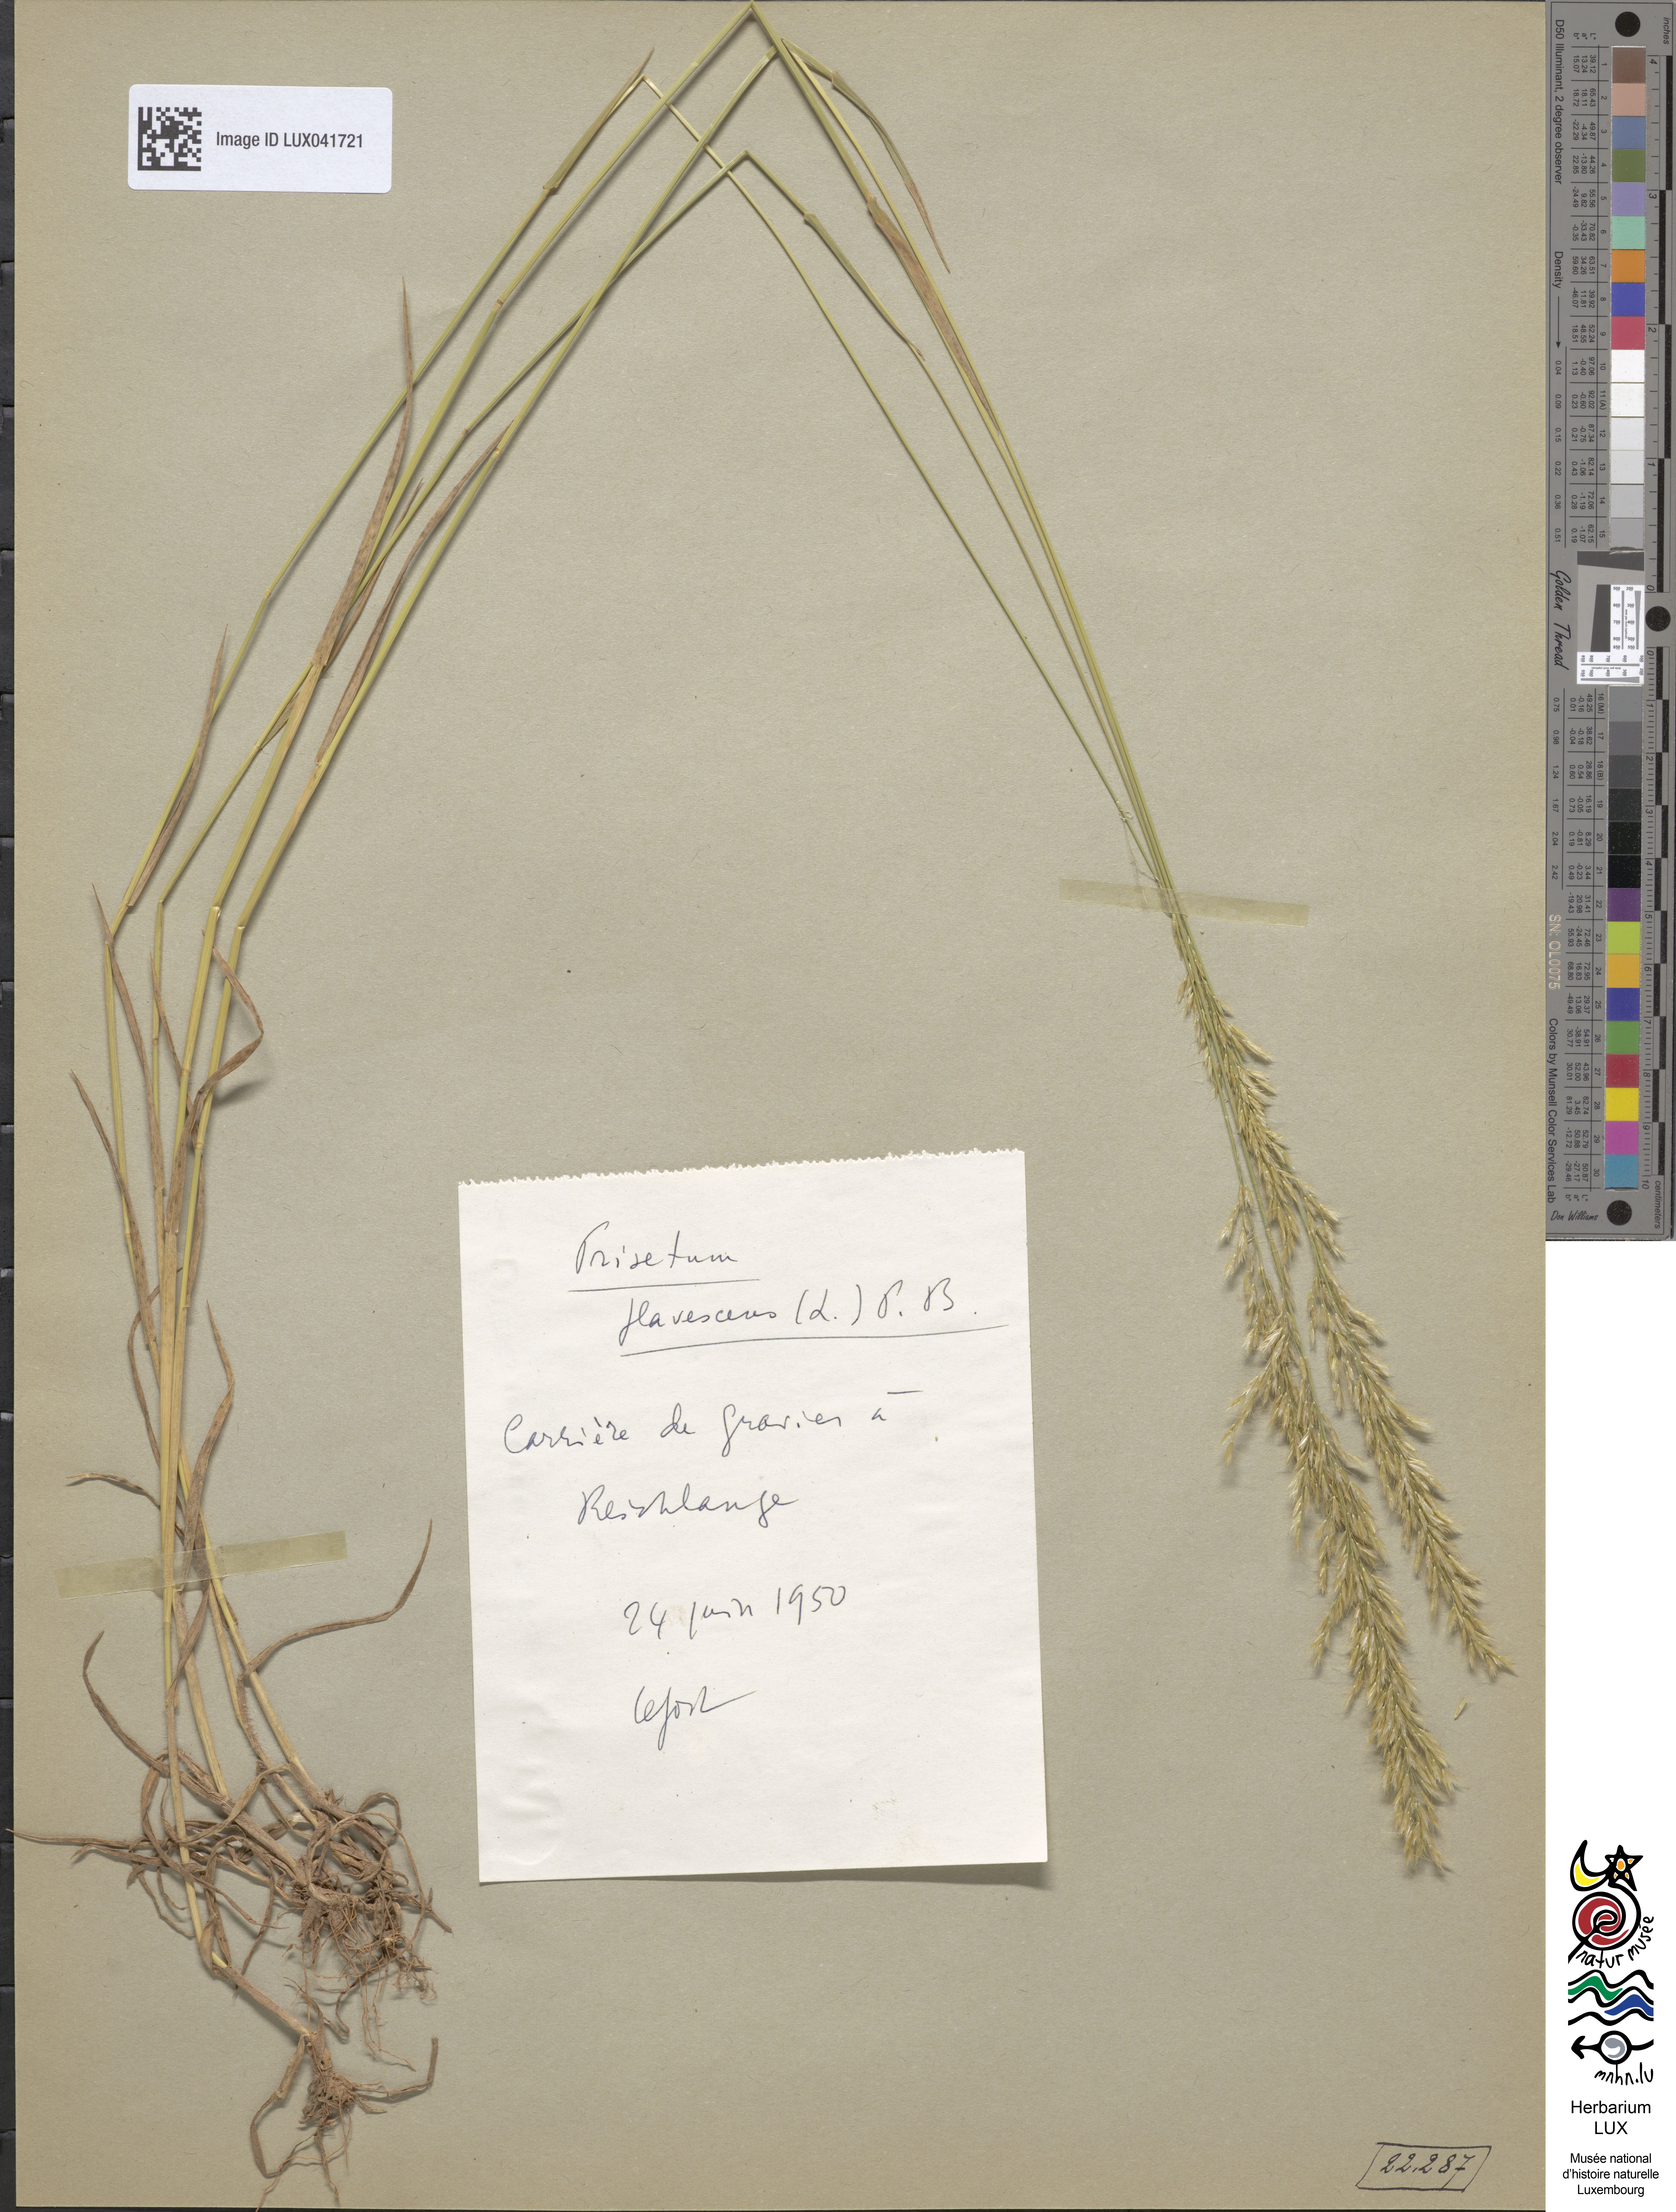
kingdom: Plantae
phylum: Tracheophyta
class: Liliopsida
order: Poales
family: Poaceae
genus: Trisetum
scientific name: Trisetum flavescens
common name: Yellow oat-grass
